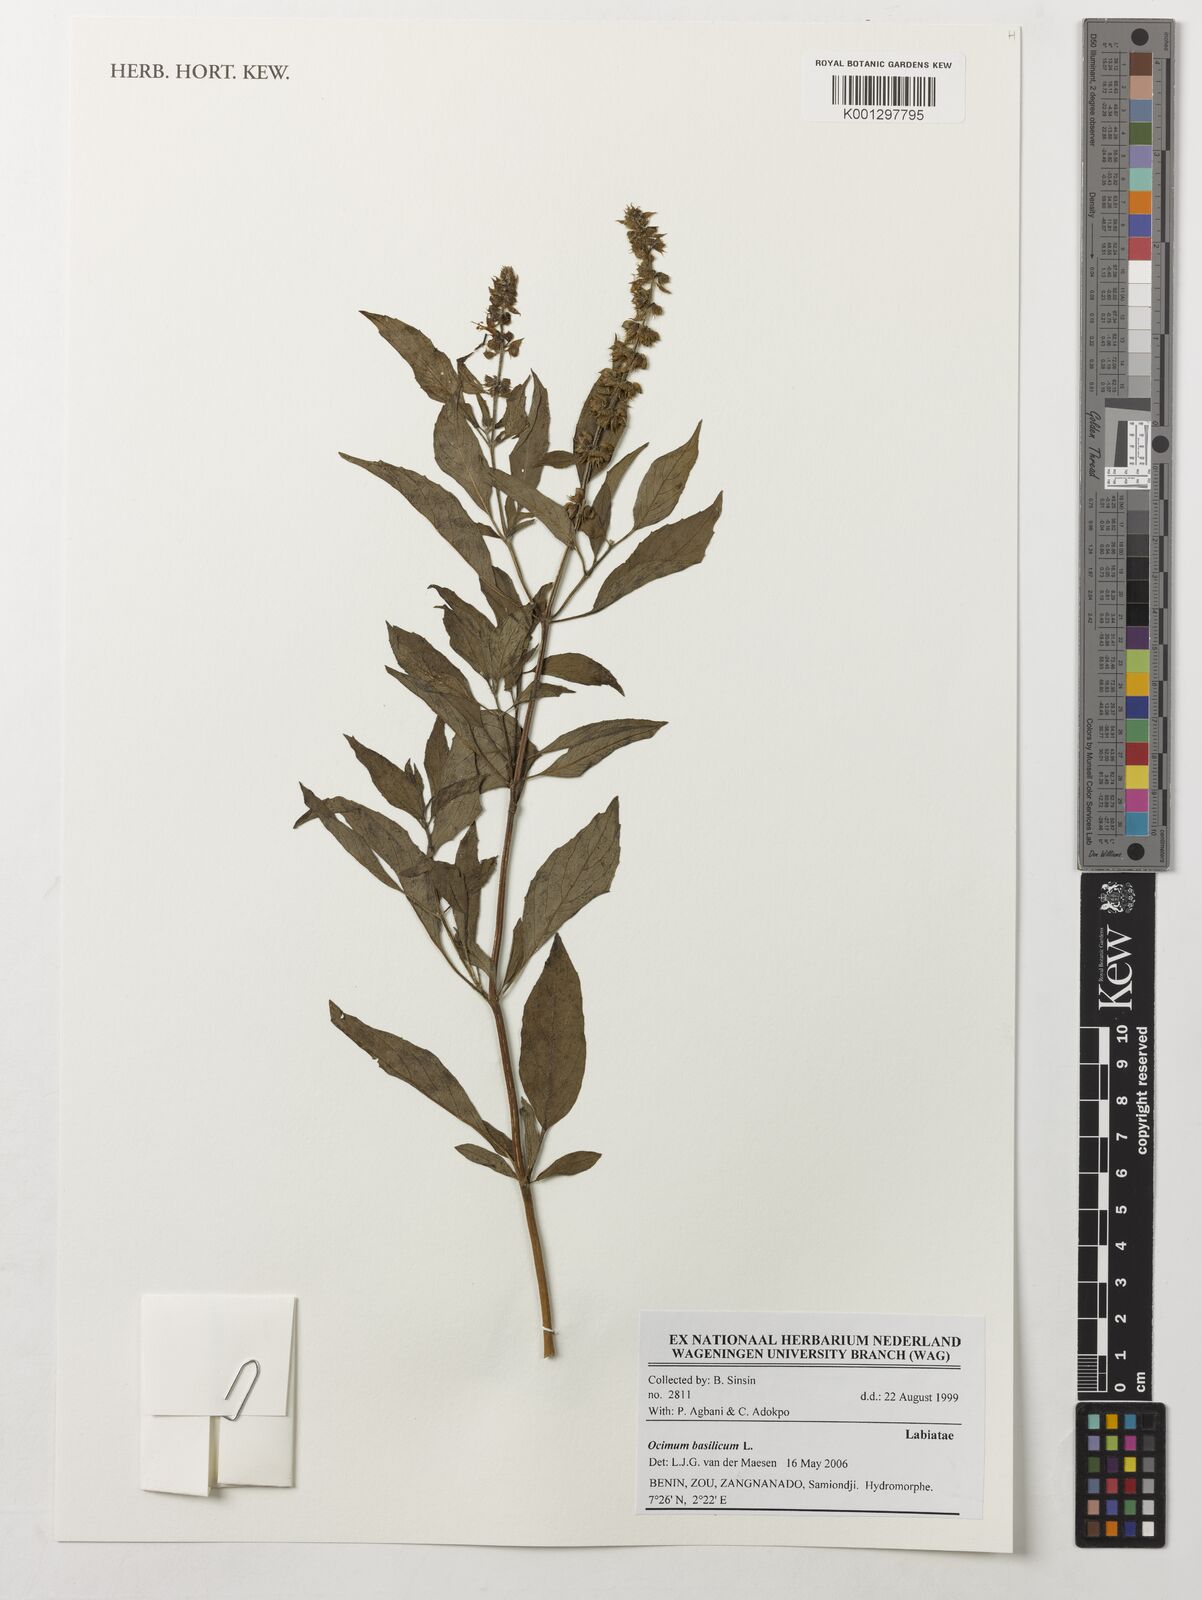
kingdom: Plantae
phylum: Tracheophyta
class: Magnoliopsida
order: Lamiales
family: Lamiaceae
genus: Ocimum
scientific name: Ocimum basilicum
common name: Sweet basil
